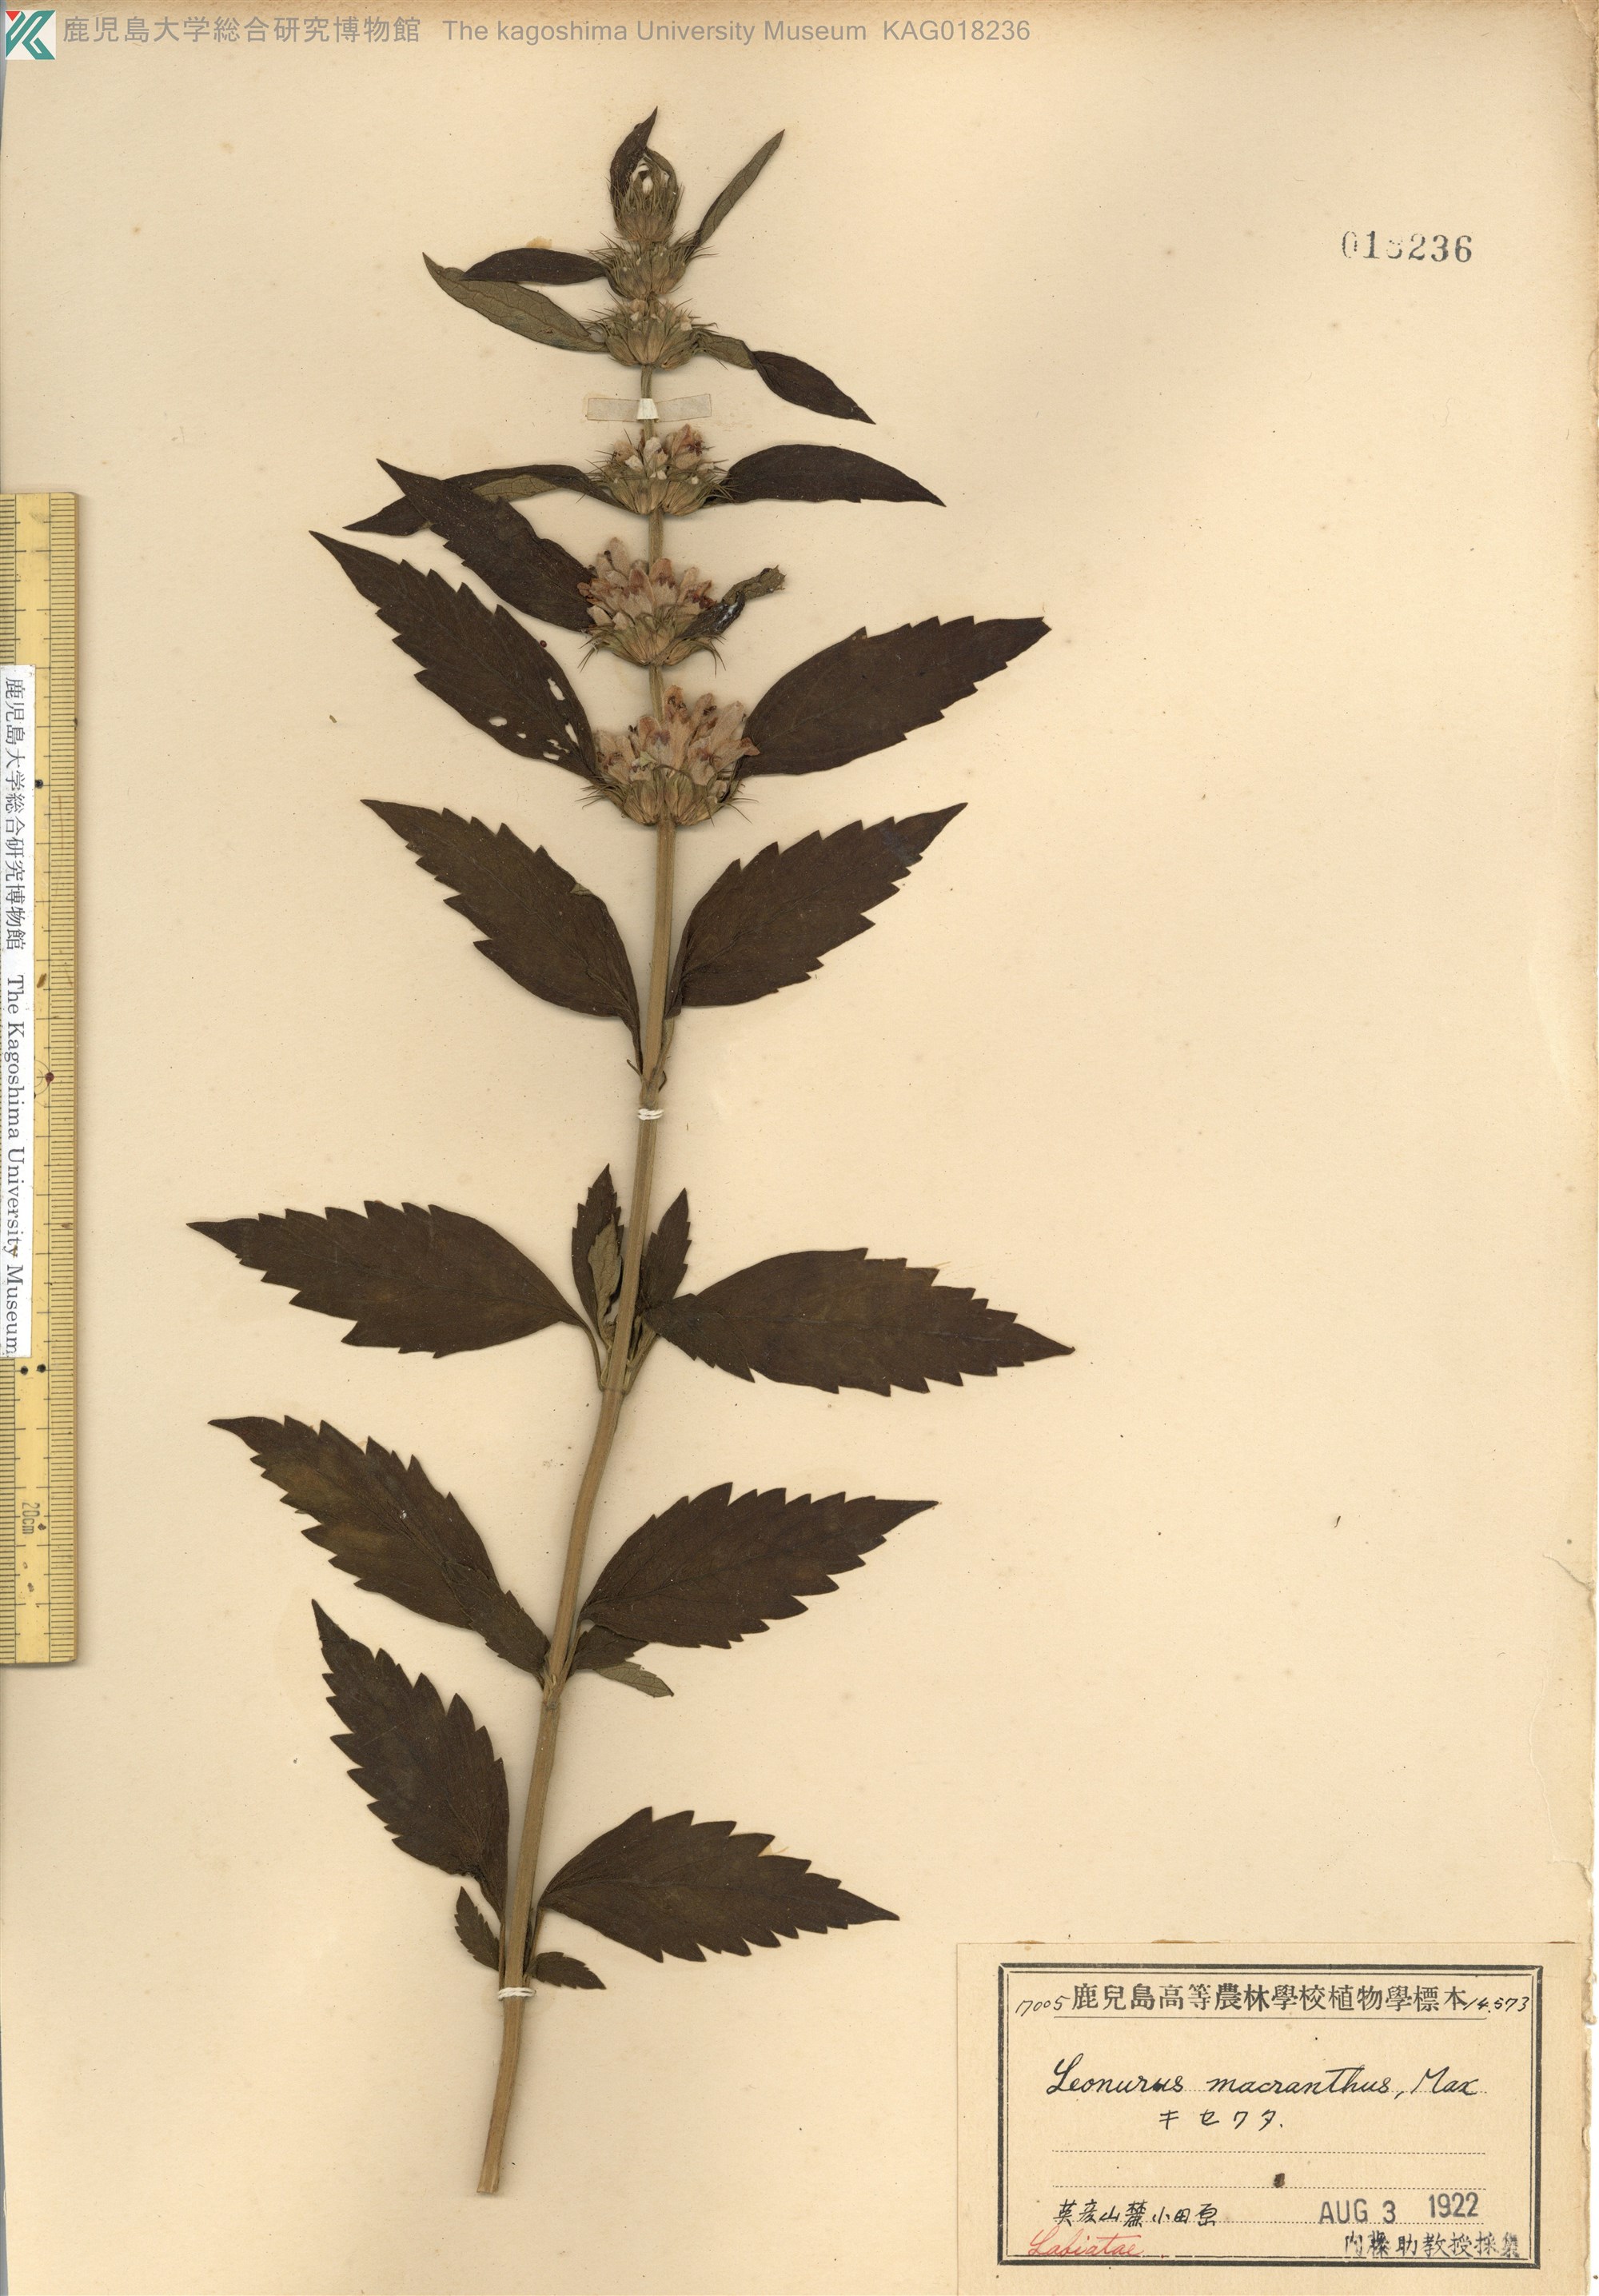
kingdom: Plantae
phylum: Tracheophyta
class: Magnoliopsida
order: Lamiales
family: Lamiaceae
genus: Leonurus
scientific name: Leonurus macranthus
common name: キセワタ
